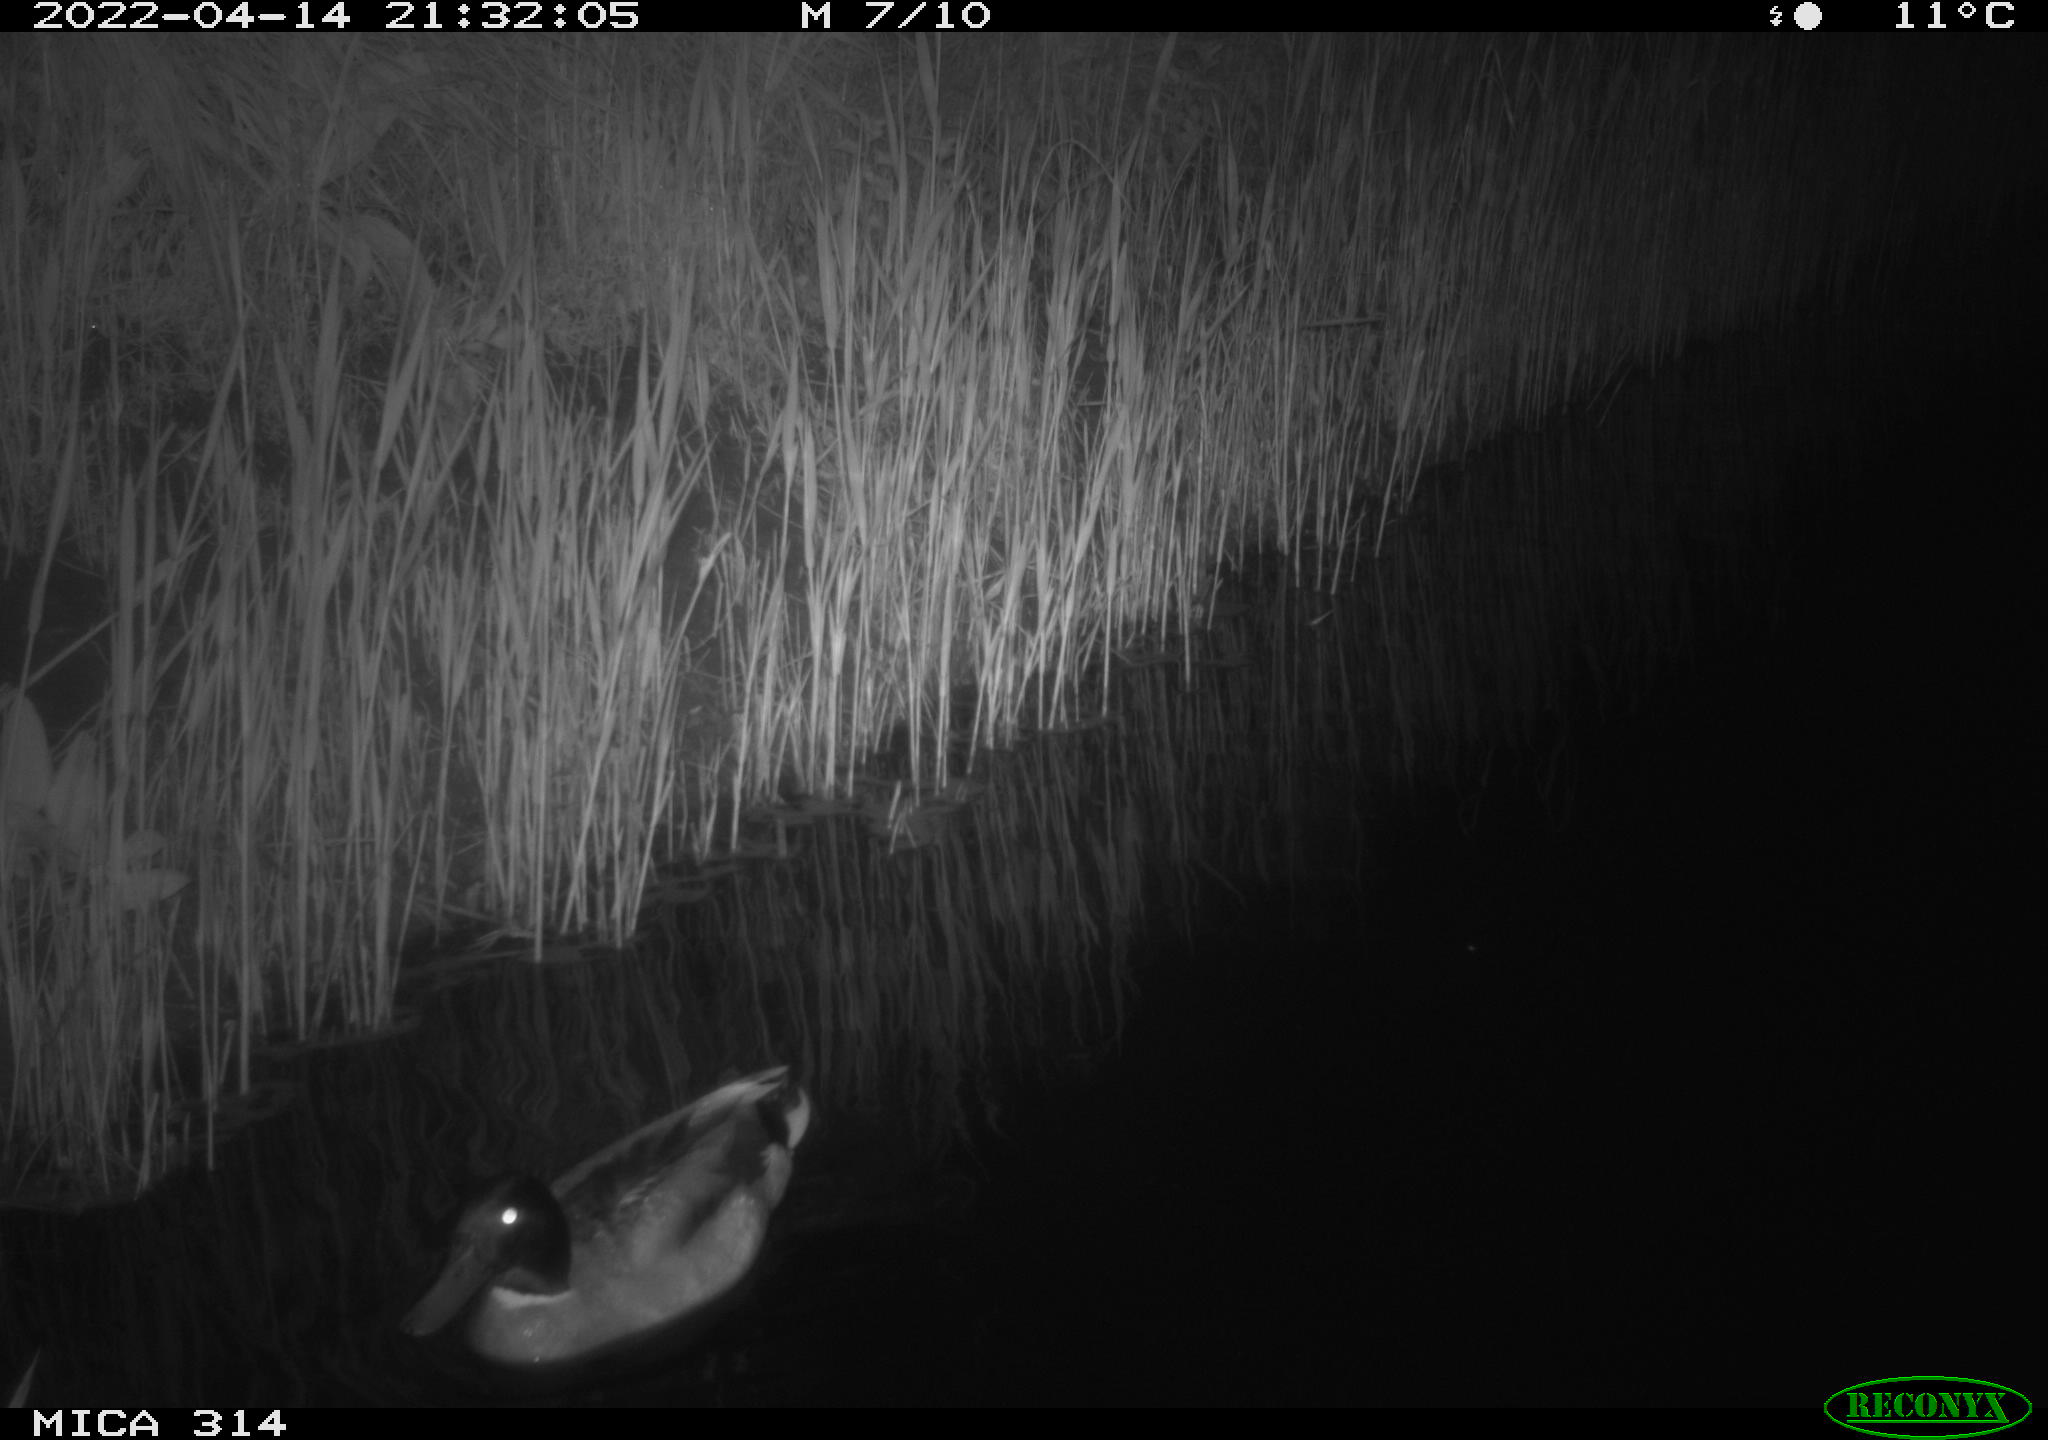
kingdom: Animalia
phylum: Chordata
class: Aves
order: Anseriformes
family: Anatidae
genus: Anas
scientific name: Anas platyrhynchos
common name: Mallard
